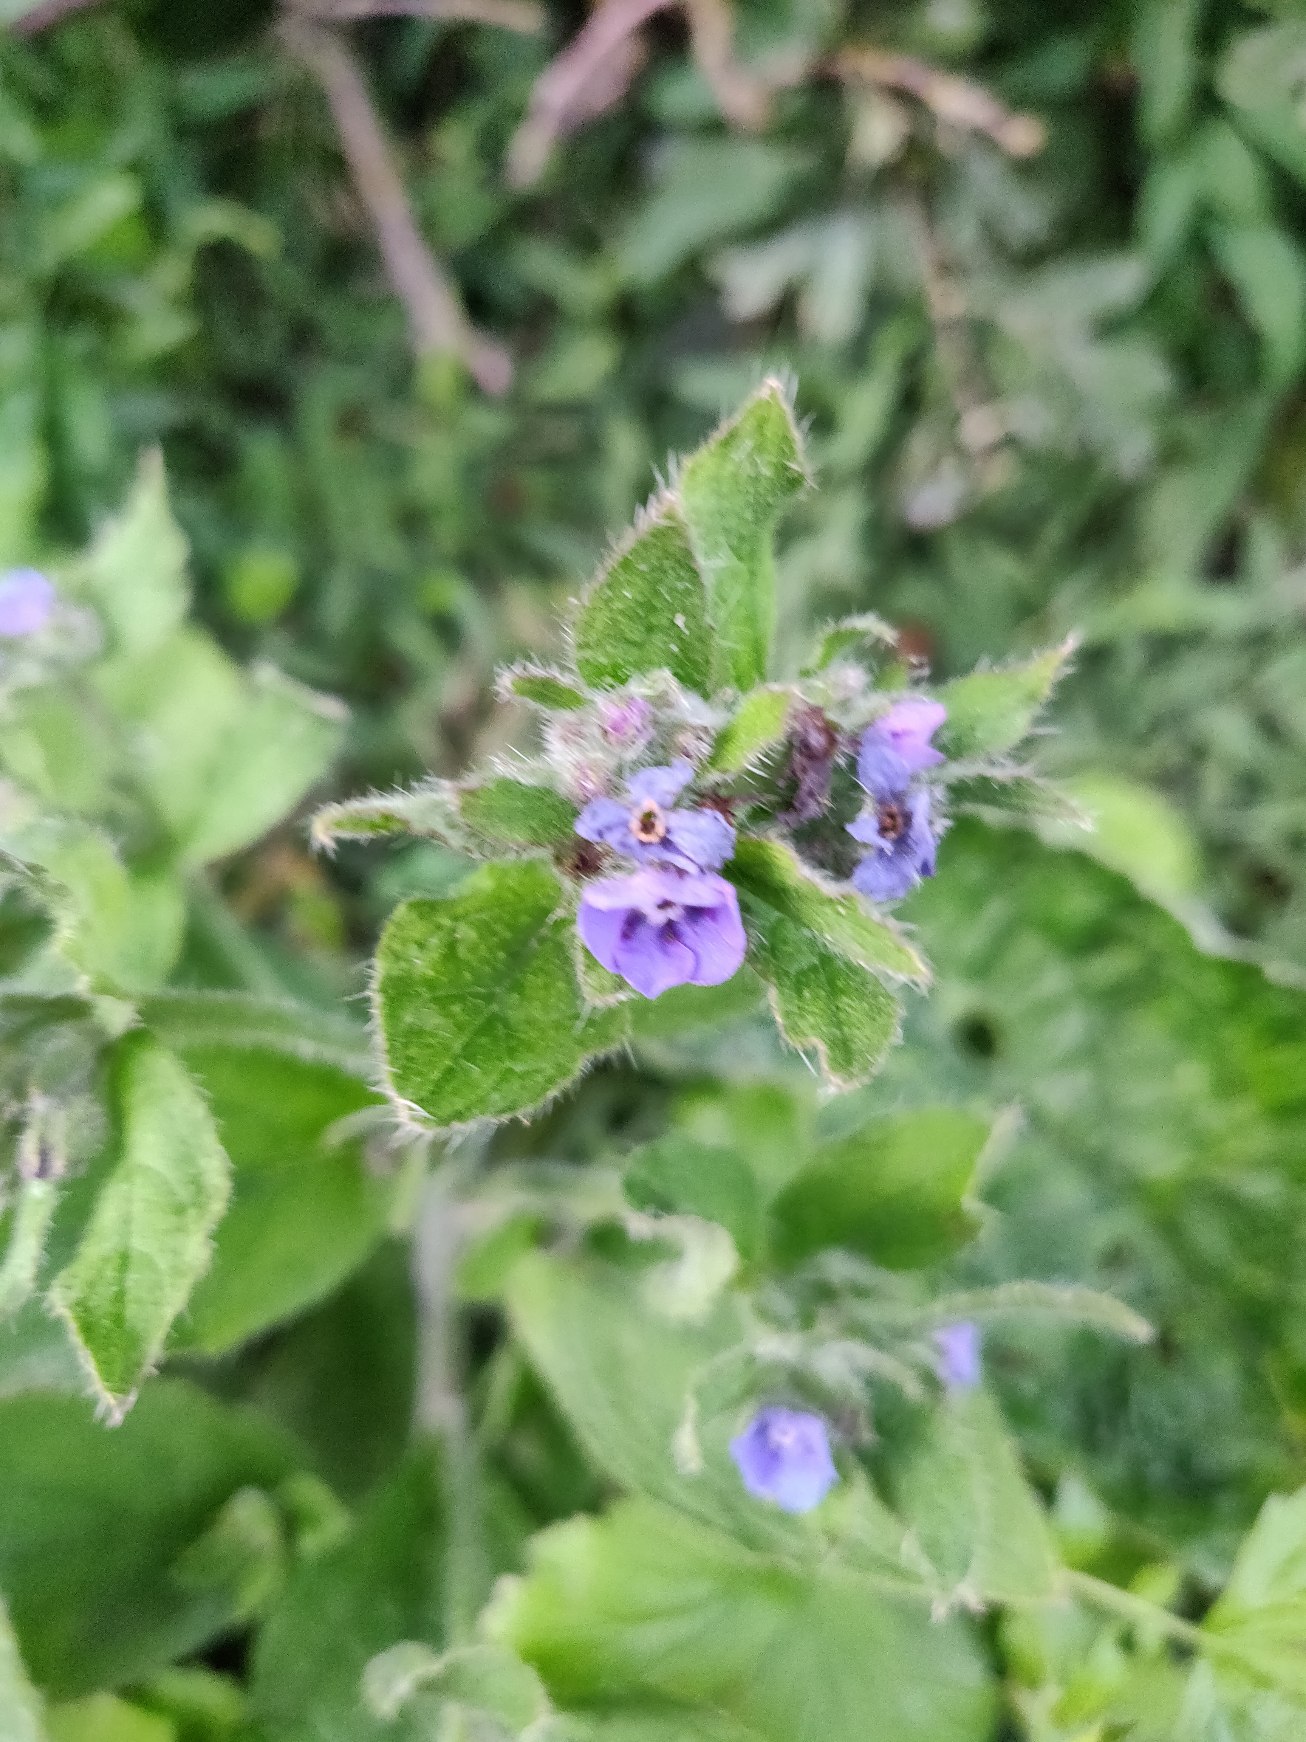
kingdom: Plantae
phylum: Tracheophyta
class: Magnoliopsida
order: Boraginales
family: Boraginaceae
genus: Pentaglottis
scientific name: Pentaglottis sempervirens
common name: Femtunge
